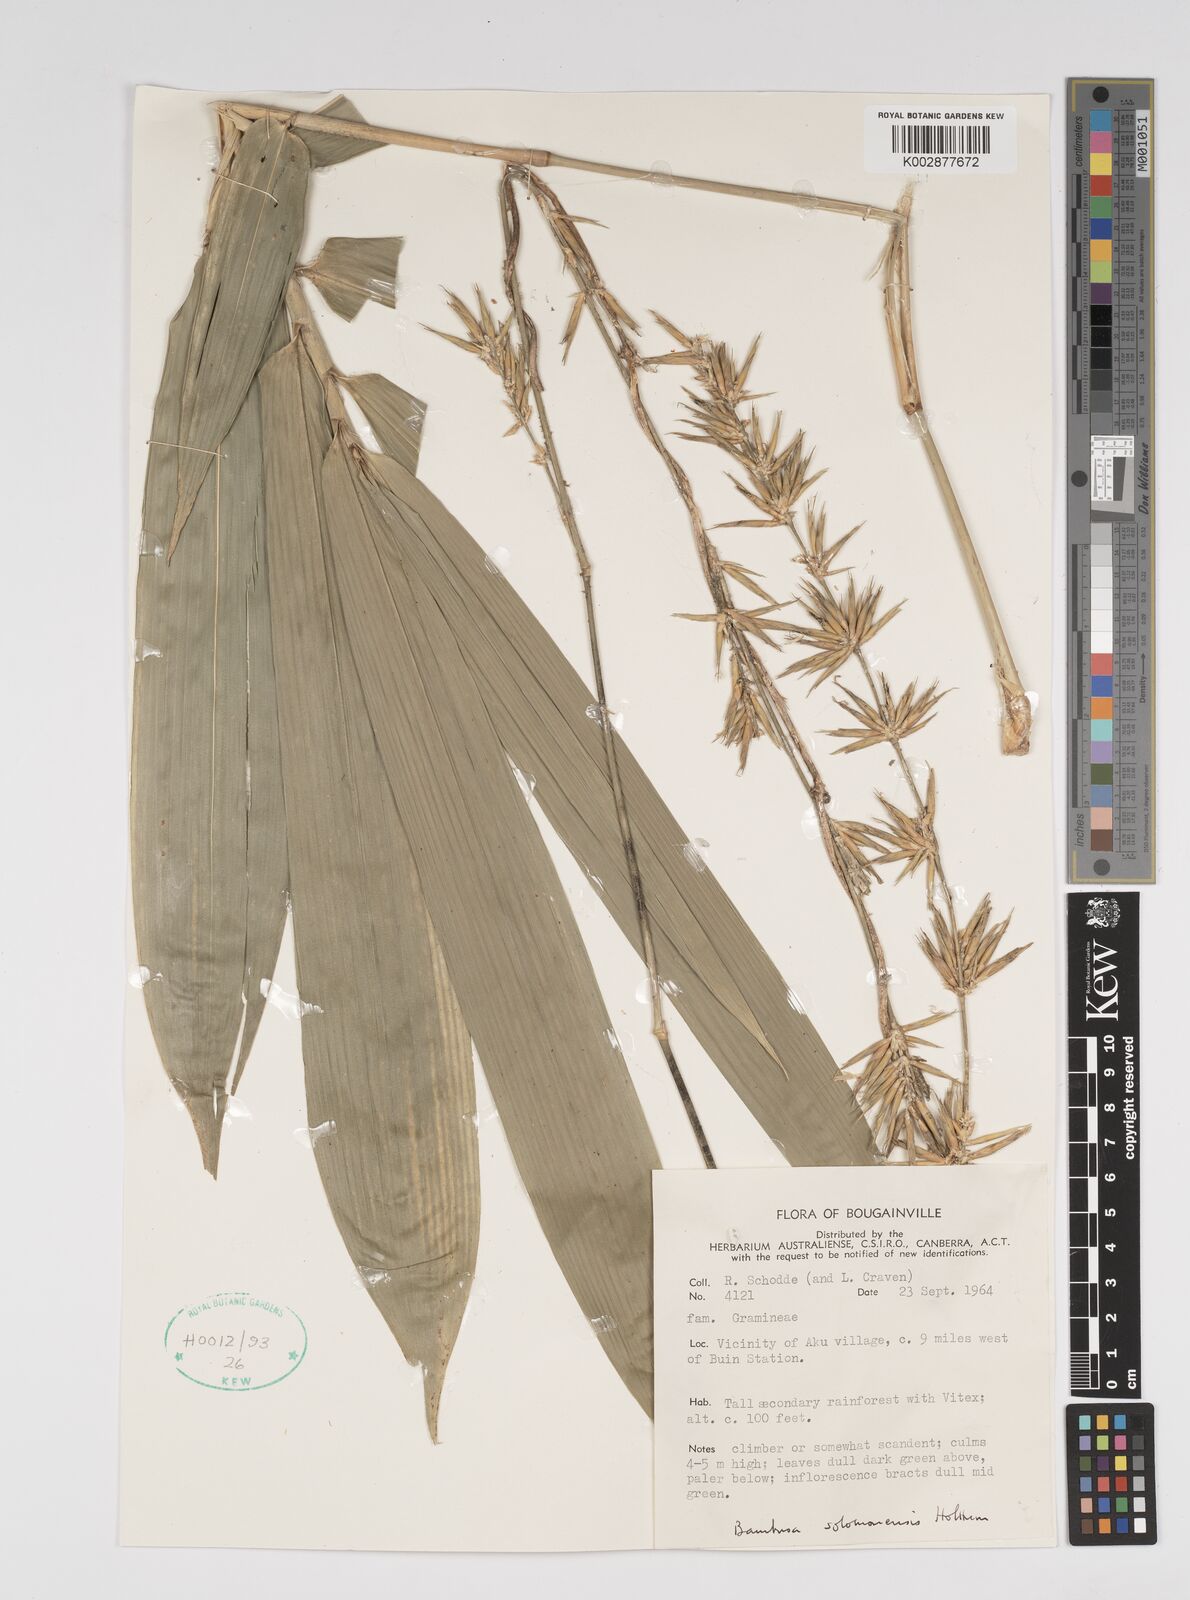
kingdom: Plantae
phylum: Tracheophyta
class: Liliopsida
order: Poales
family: Poaceae
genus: Bambusa
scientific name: Bambusa solomonensis
